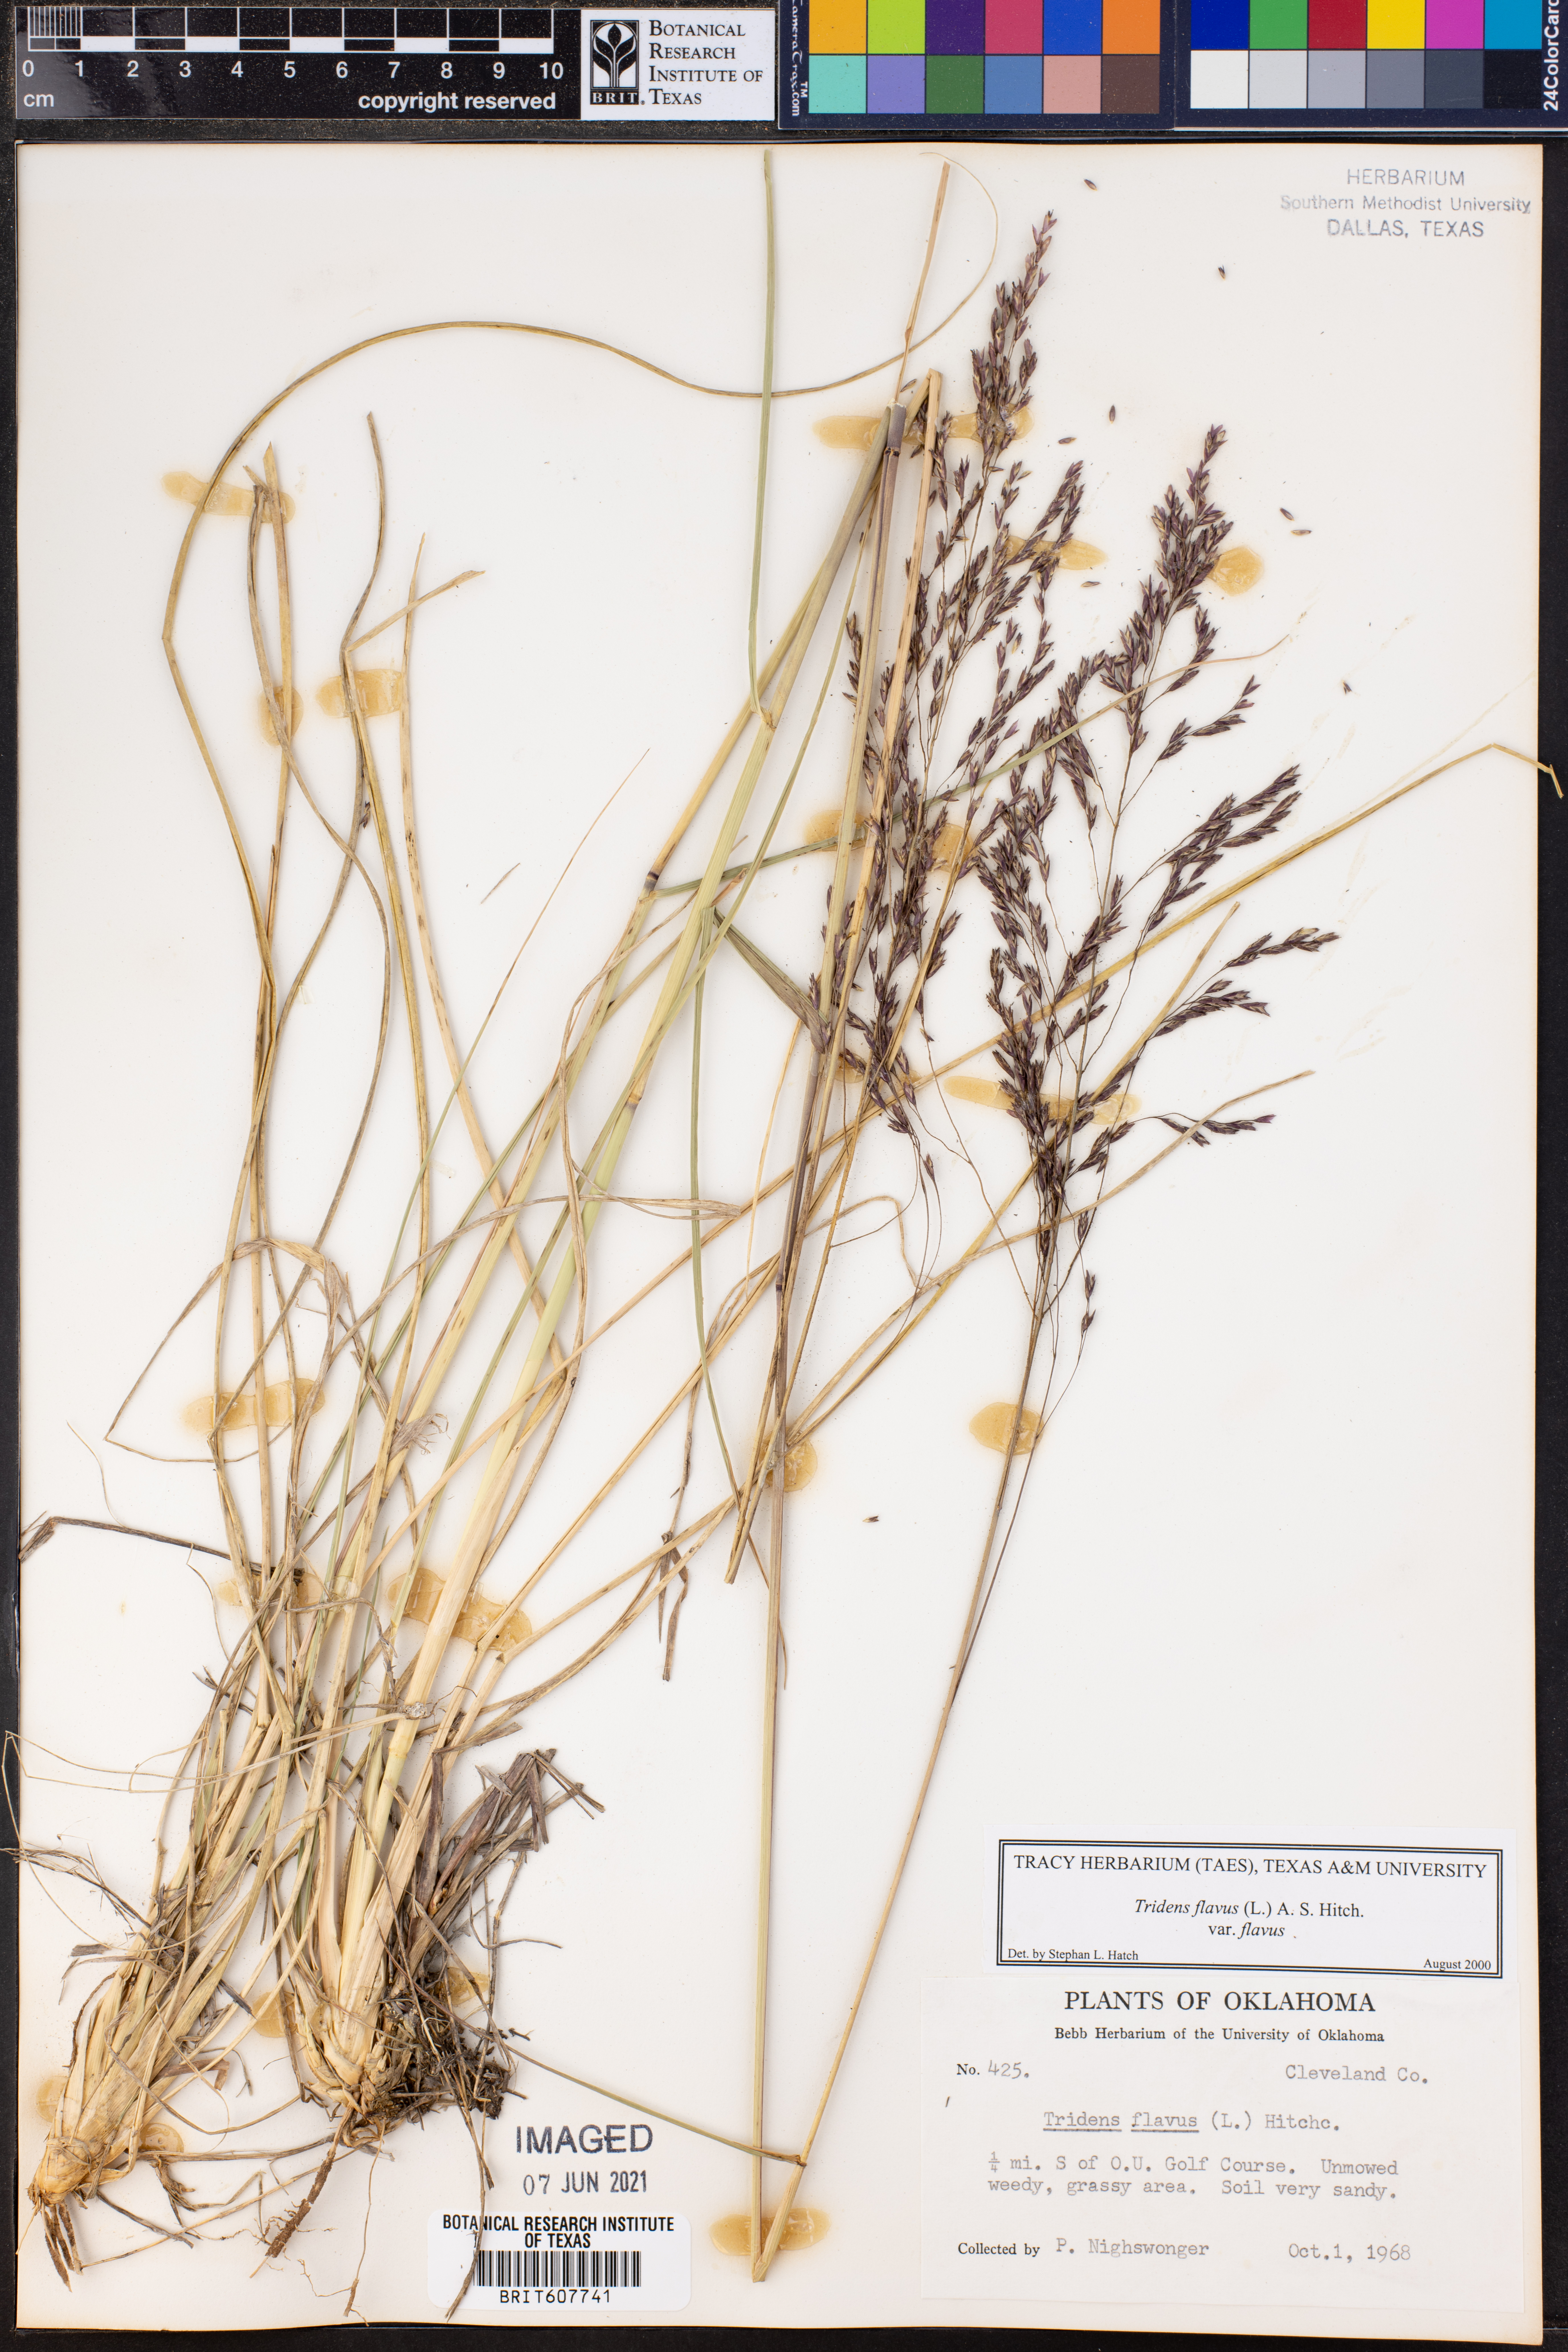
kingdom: Plantae
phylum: Tracheophyta
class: Liliopsida
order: Poales
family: Poaceae
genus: Tridens
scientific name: Tridens flavus
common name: Purpletop
